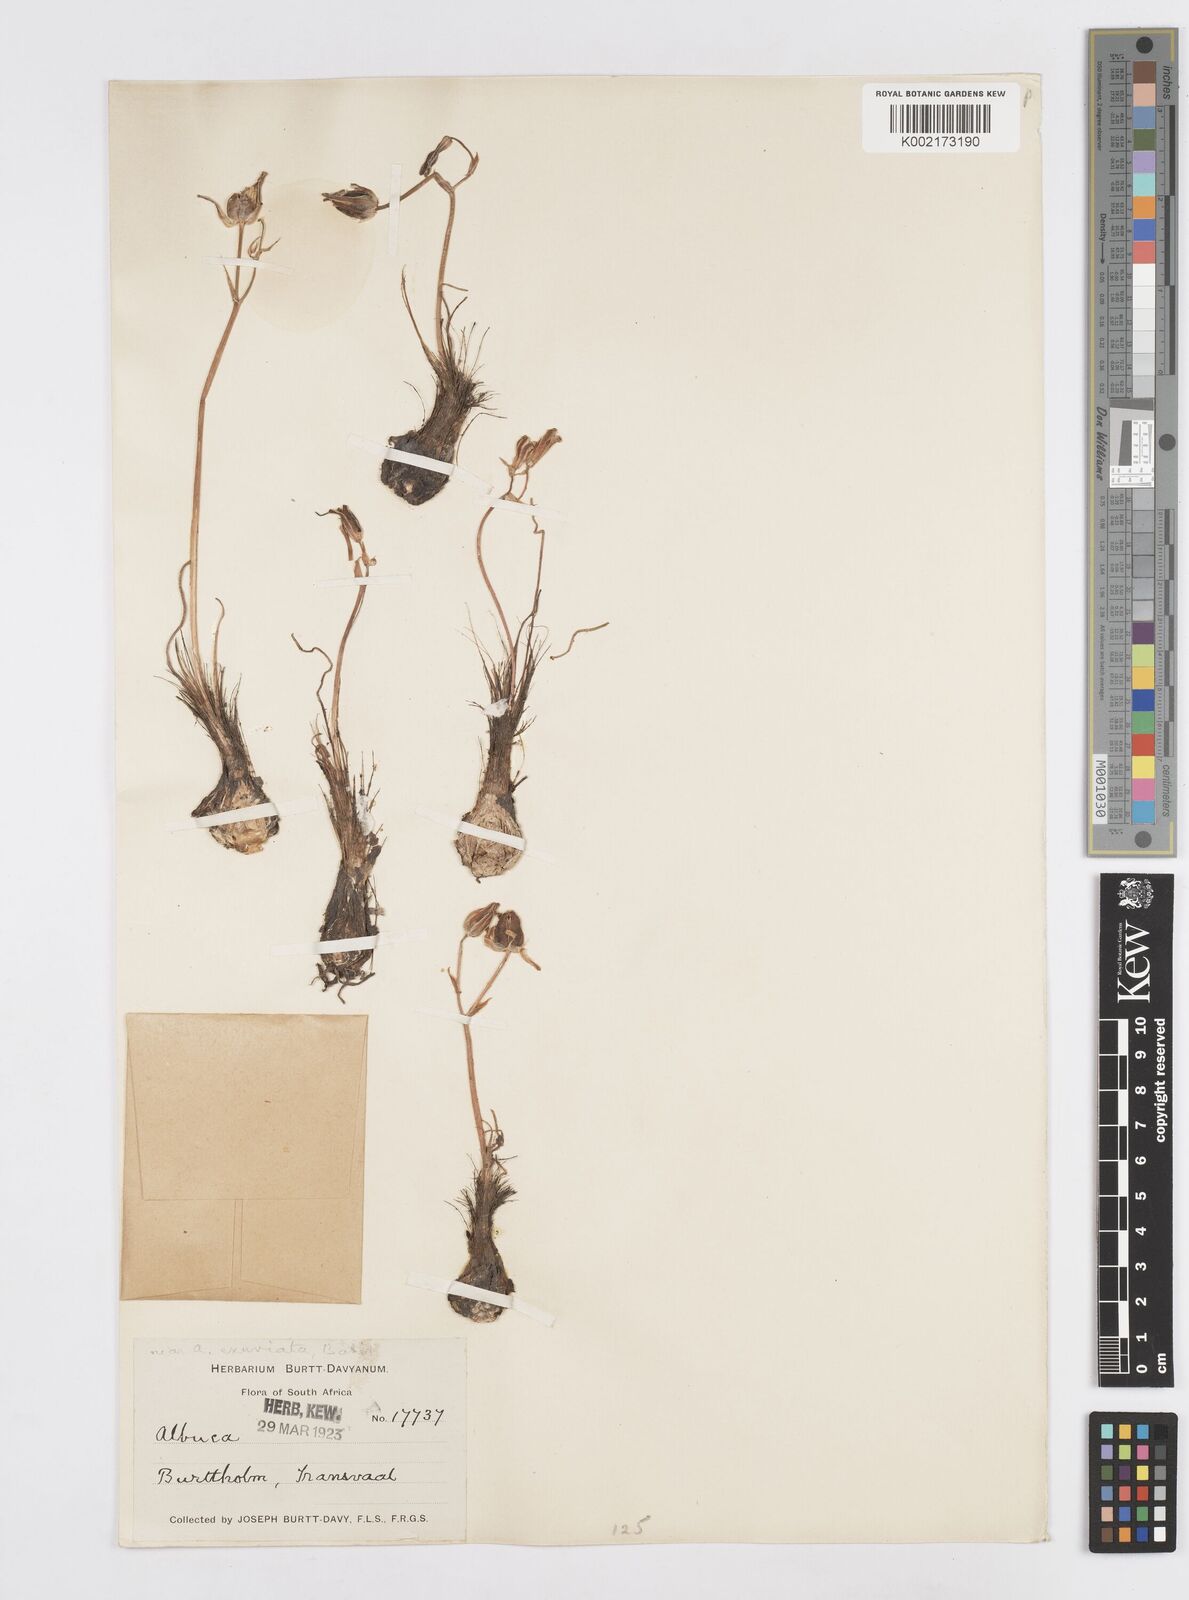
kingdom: Plantae
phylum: Tracheophyta
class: Liliopsida
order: Asparagales
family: Asparagaceae
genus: Albuca
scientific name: Albuca
